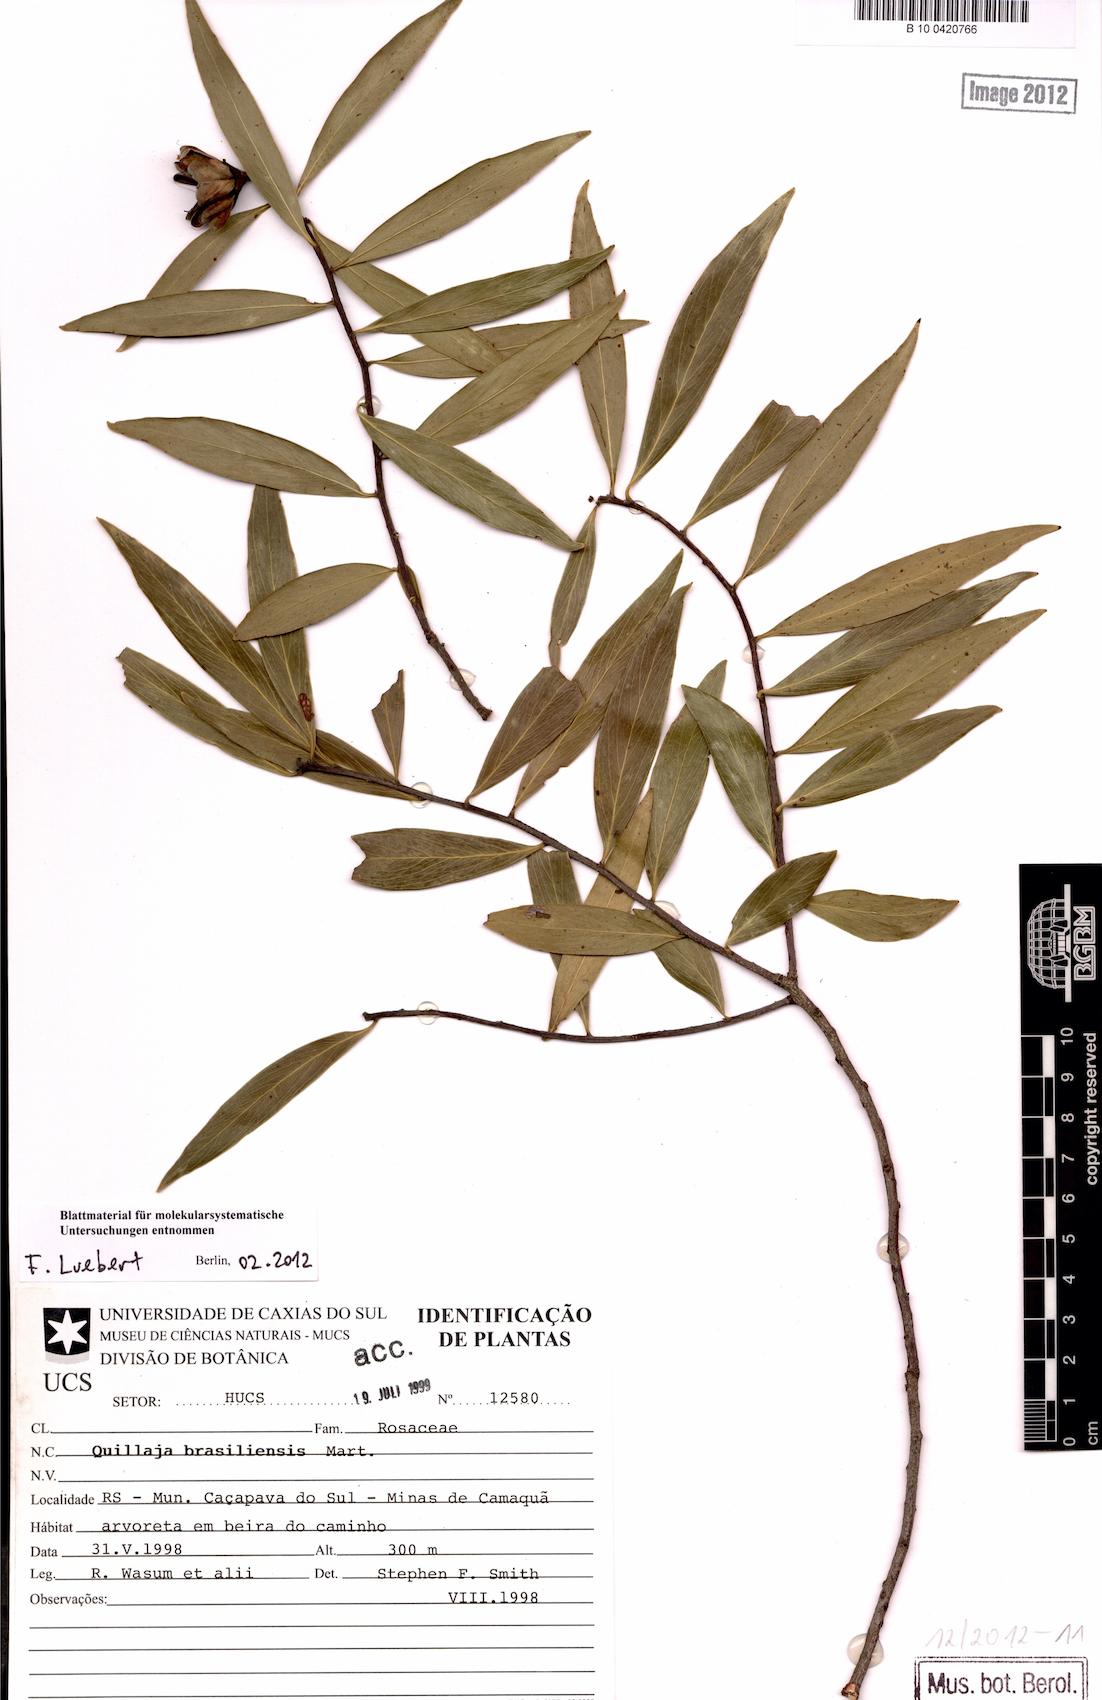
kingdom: Plantae
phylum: Tracheophyta
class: Magnoliopsida
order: Fabales
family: Quillajaceae
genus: Quillaja
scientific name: Quillaja brasiliensis
